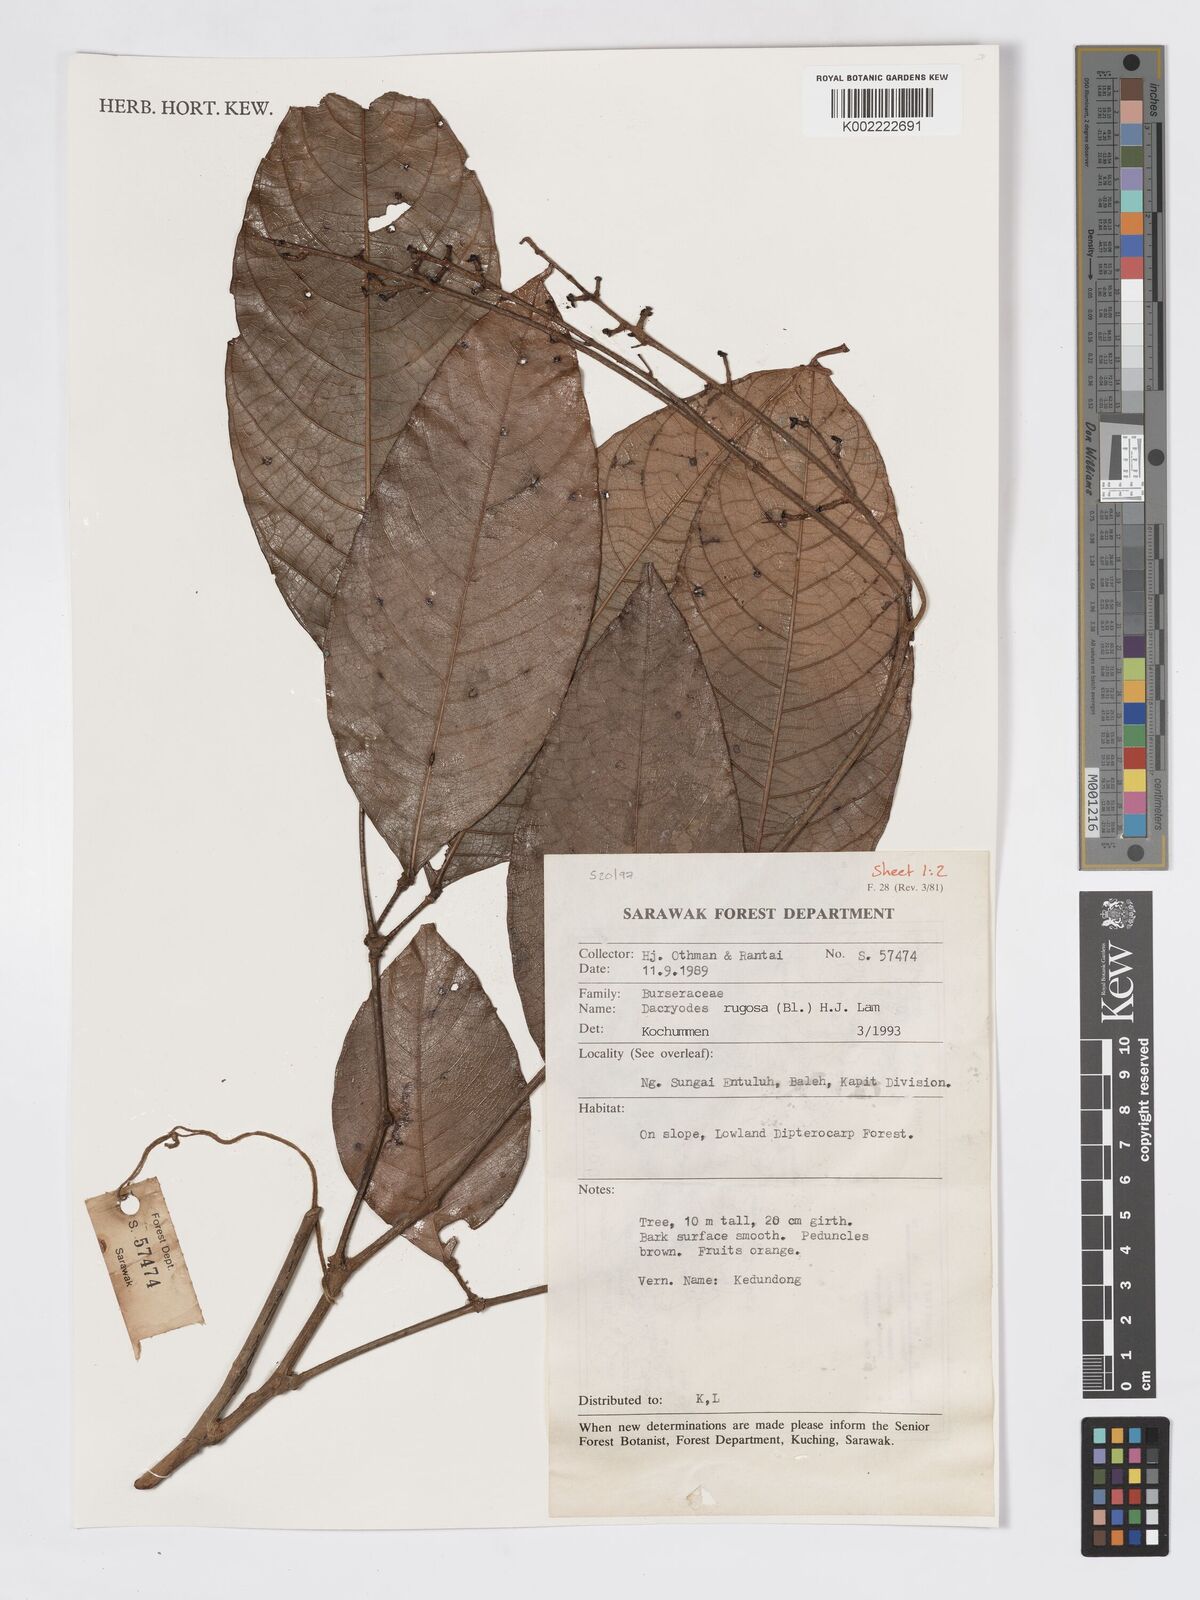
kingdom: Plantae
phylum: Tracheophyta
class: Magnoliopsida
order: Sapindales
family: Burseraceae
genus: Dacryodes
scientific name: Dacryodes rugosa
